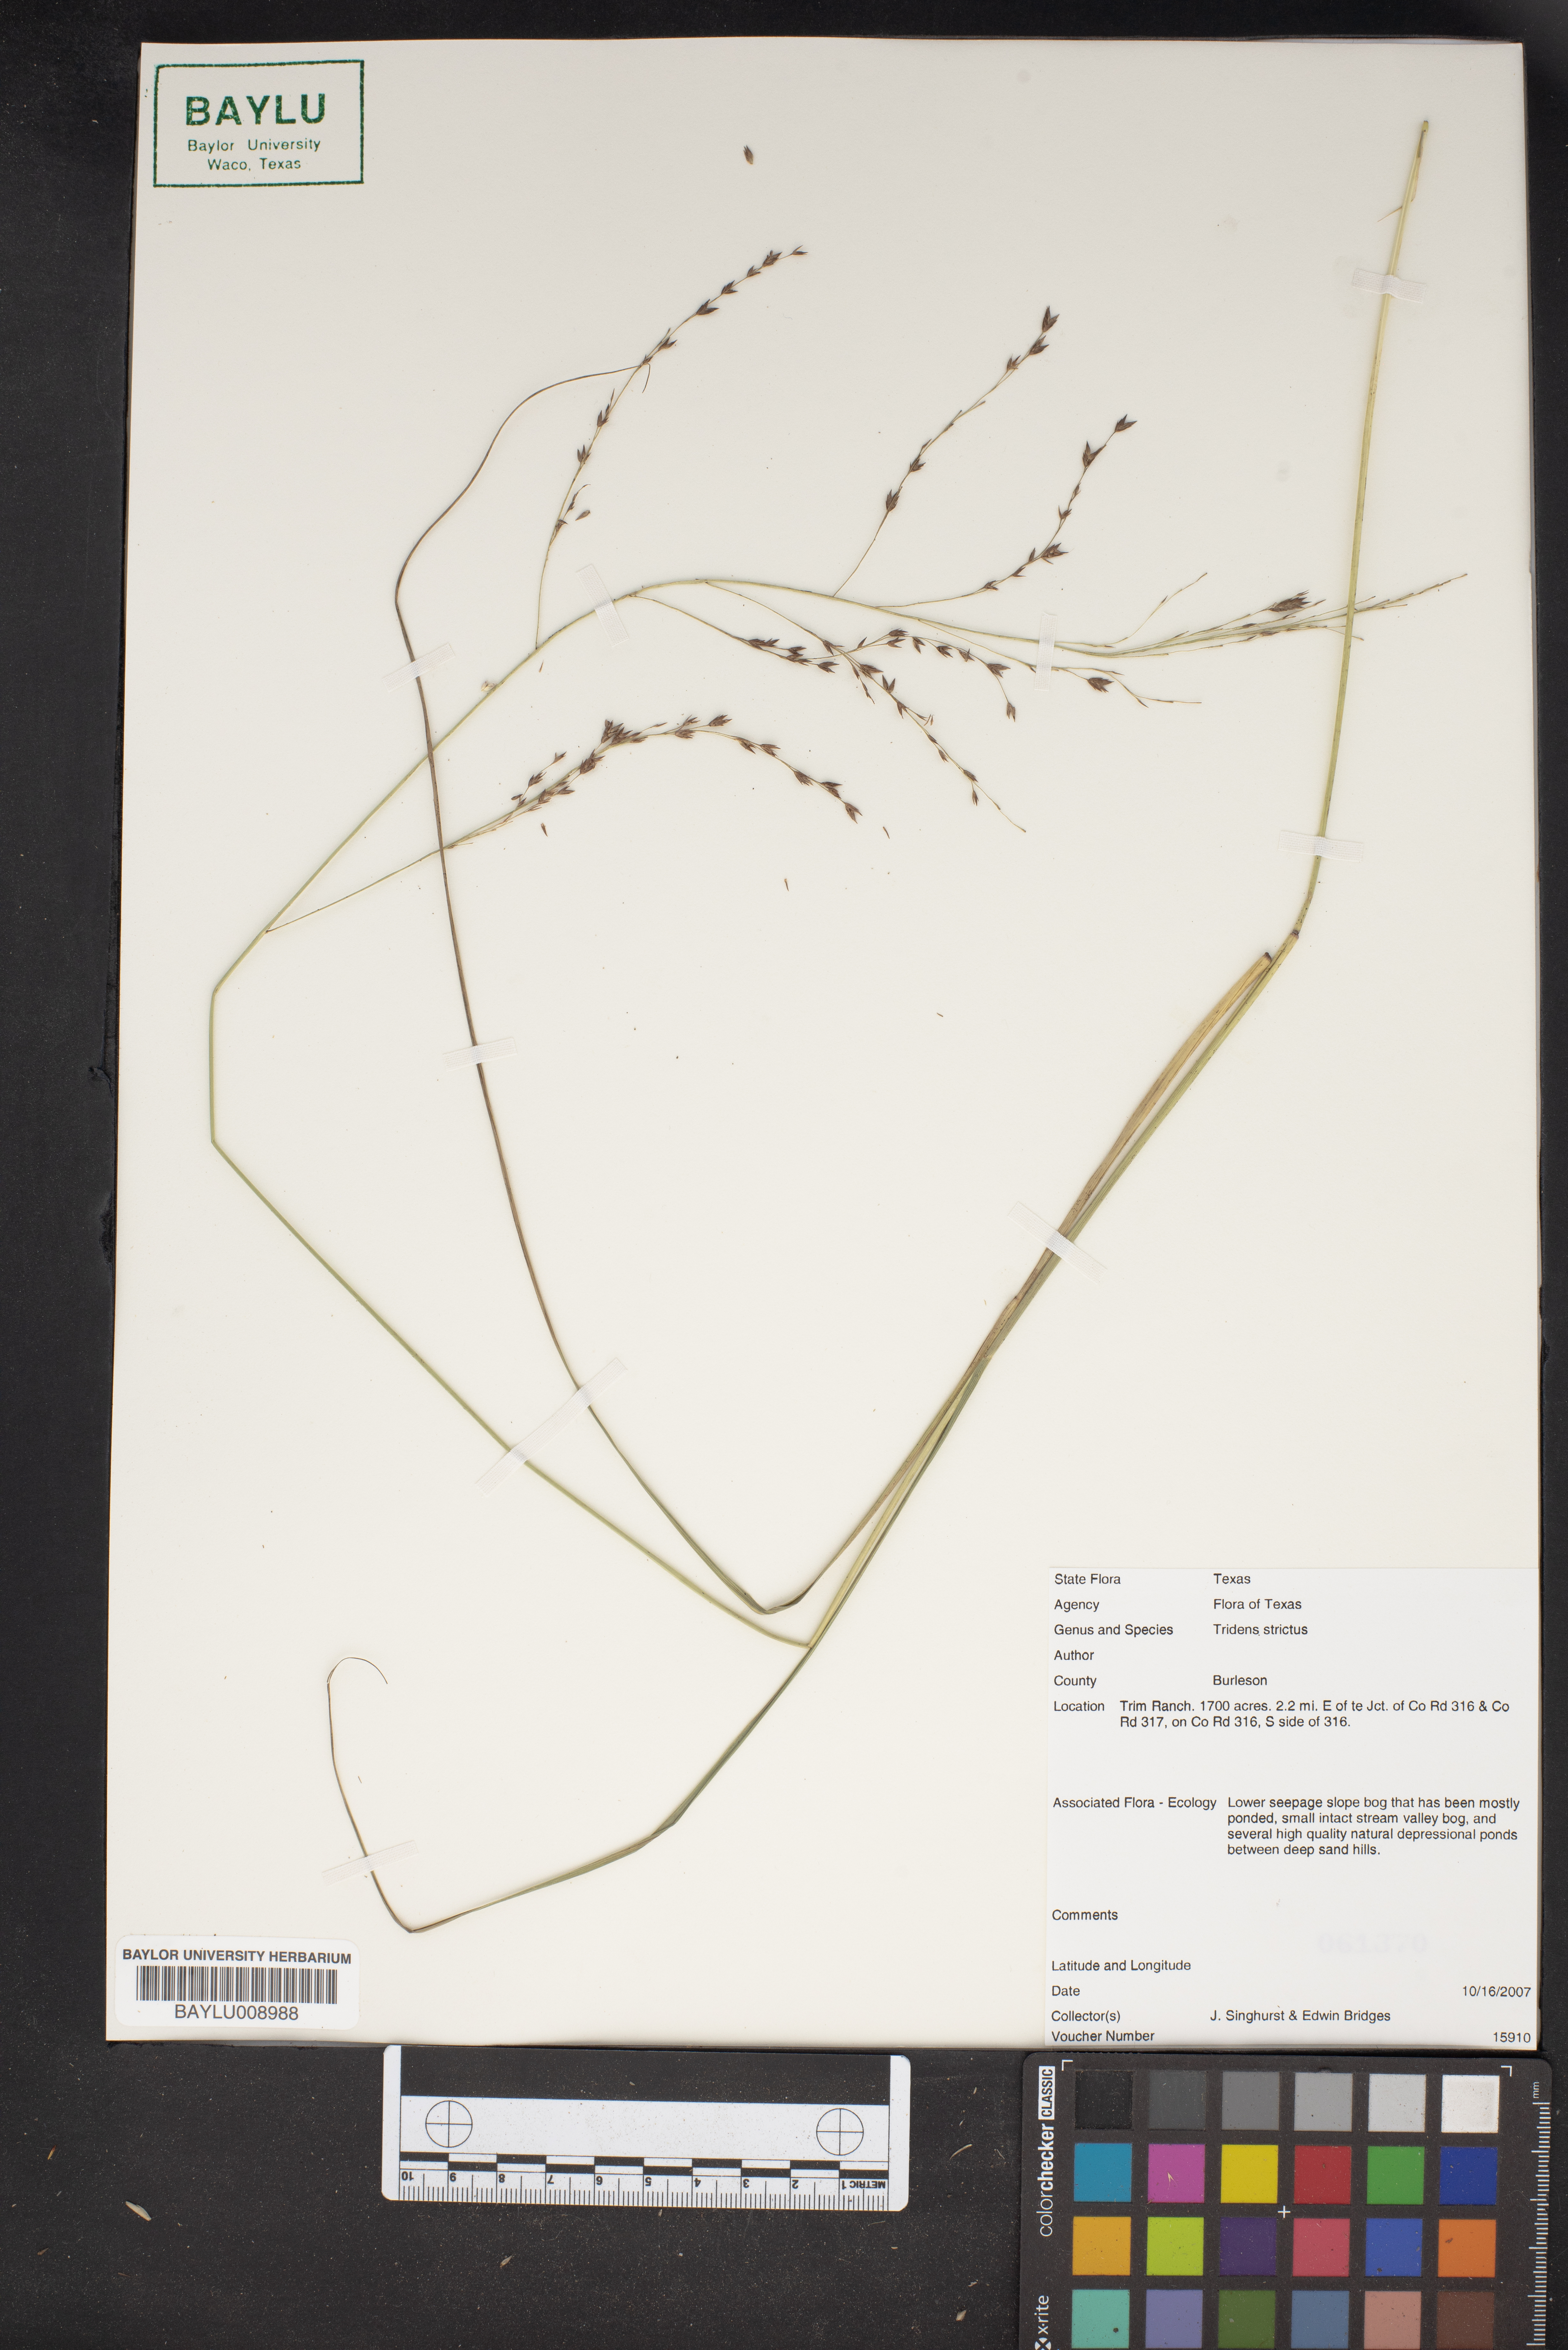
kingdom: Plantae
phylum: Tracheophyta
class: Liliopsida
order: Poales
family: Poaceae
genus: Tridens
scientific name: Tridens strictus
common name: Long-spike tridens
